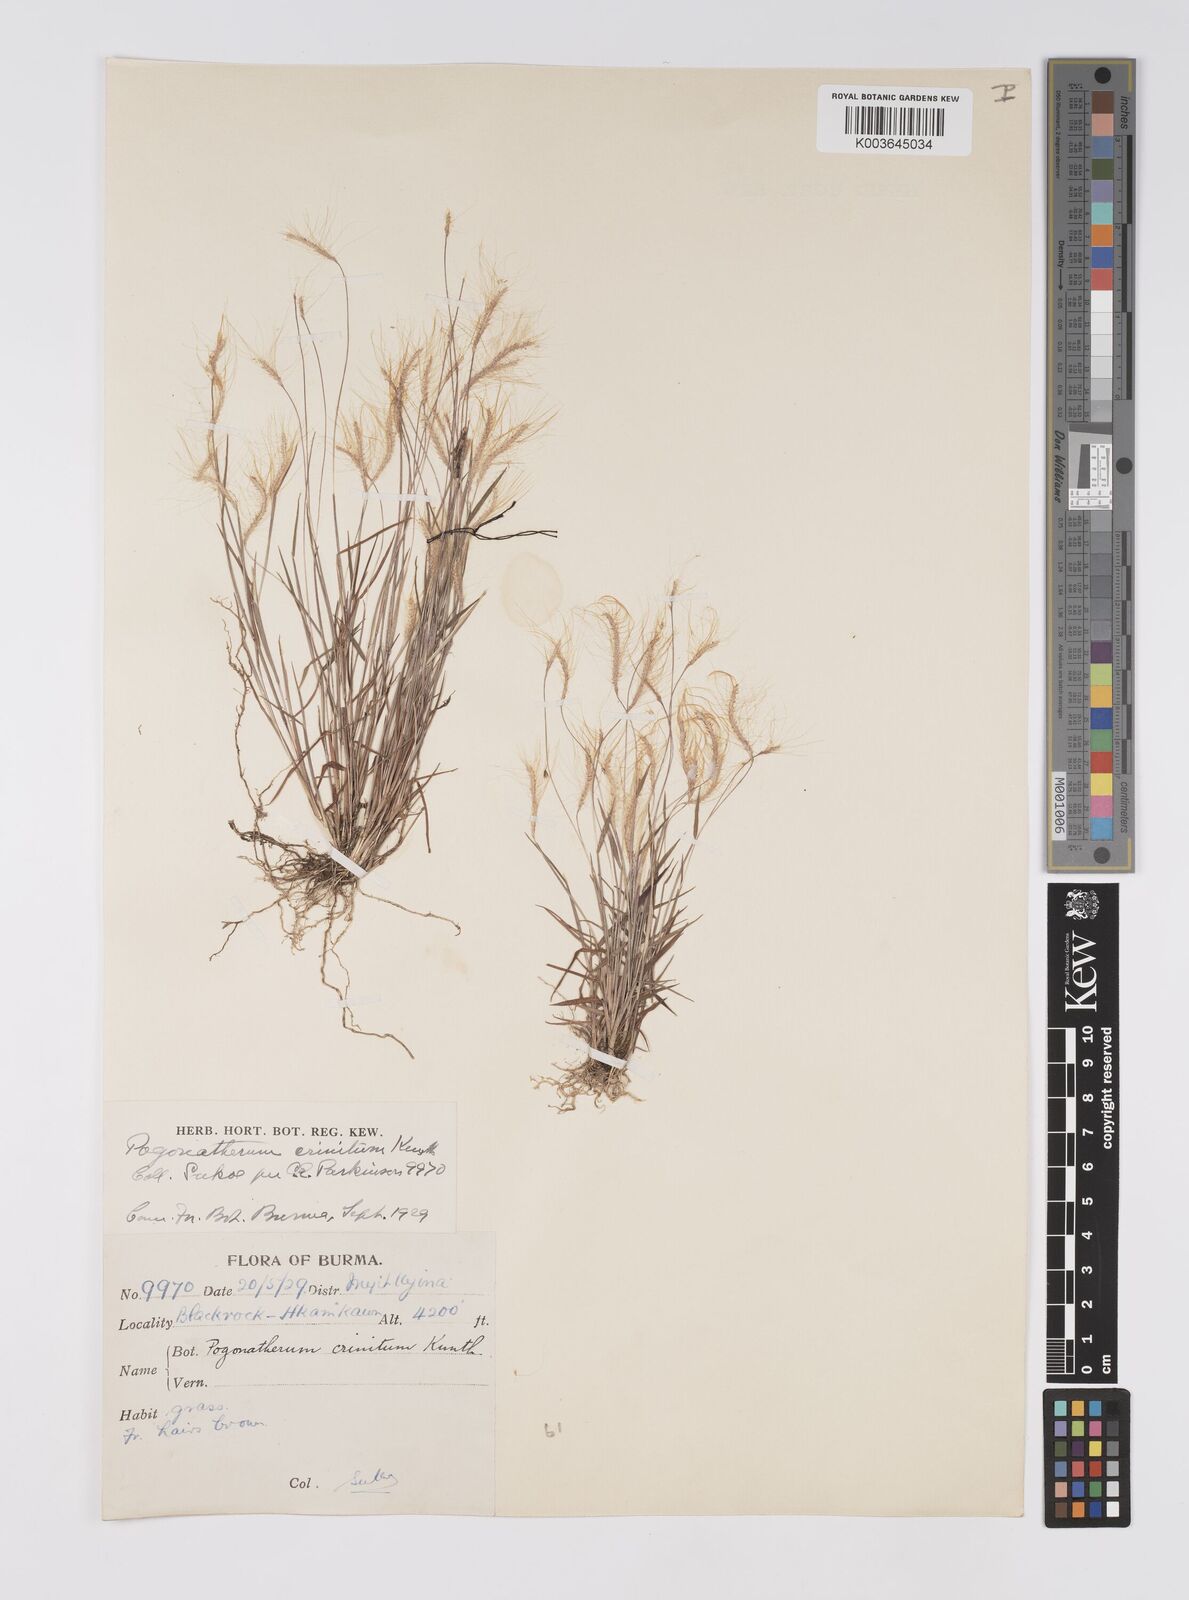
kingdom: Plantae
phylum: Tracheophyta
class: Liliopsida
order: Poales
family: Poaceae
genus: Pogonatherum
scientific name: Pogonatherum crinitum
